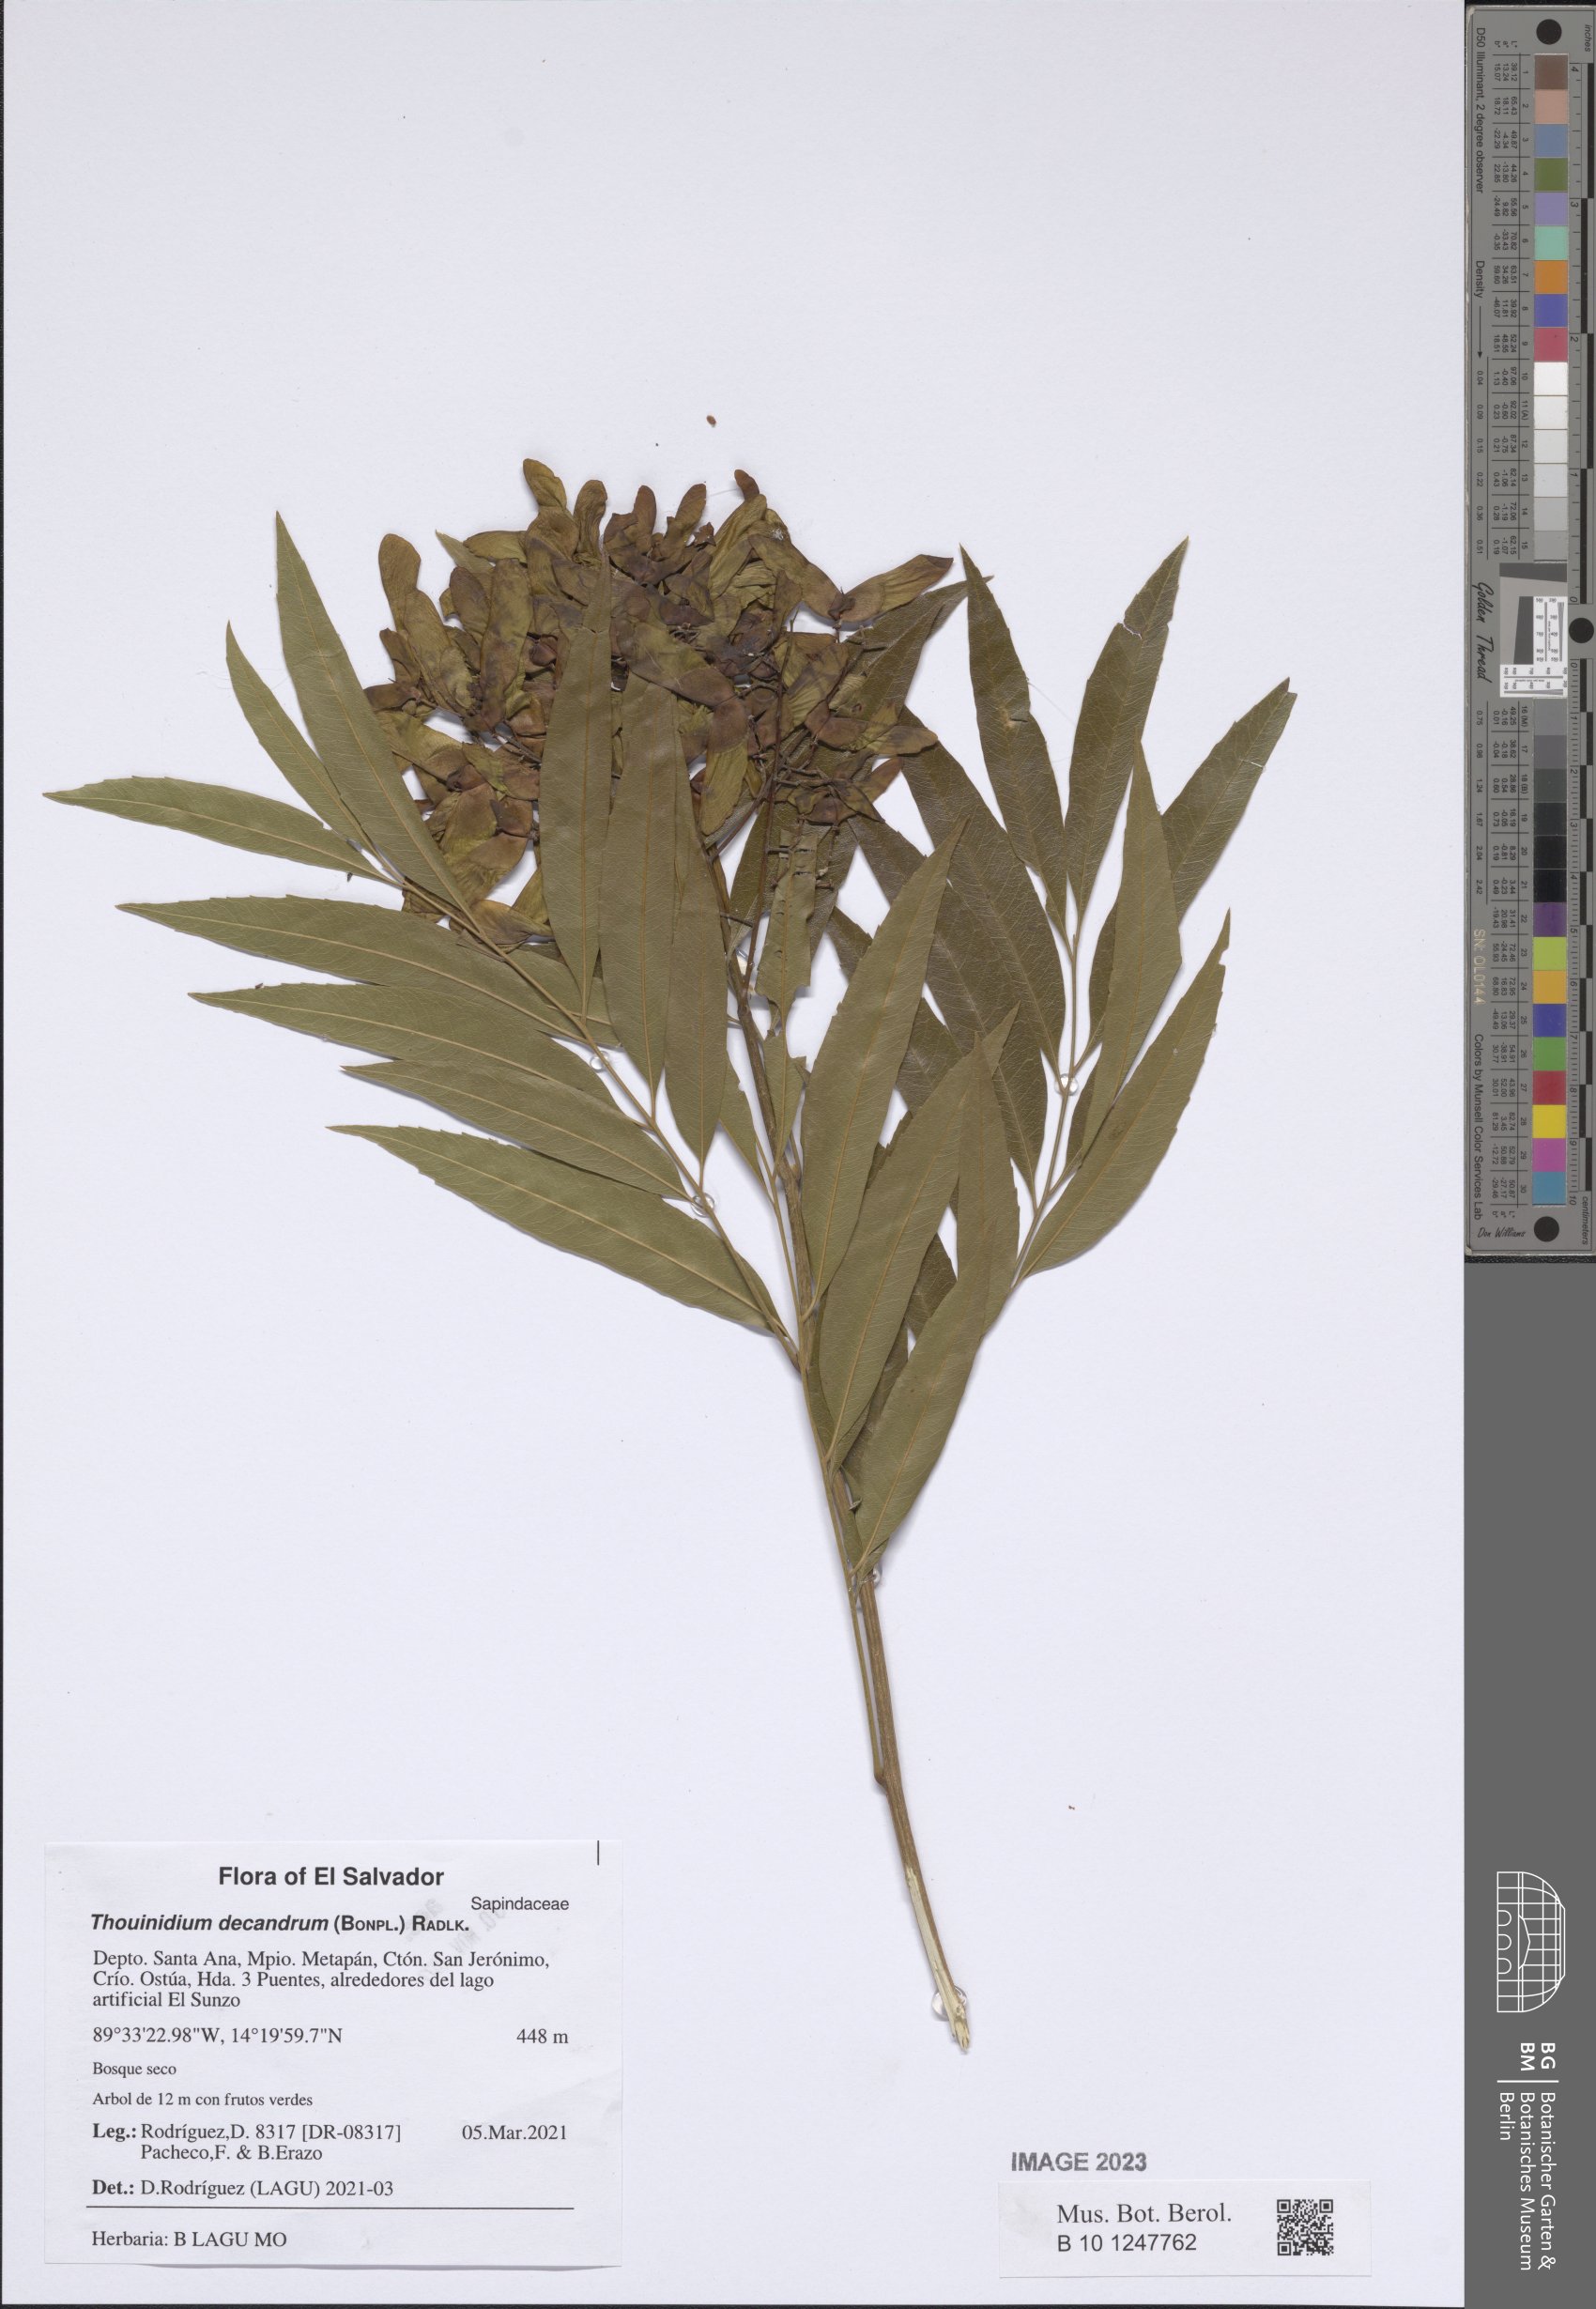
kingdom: Plantae
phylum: Tracheophyta
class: Magnoliopsida
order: Sapindales
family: Sapindaceae
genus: Thouinidium
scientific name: Thouinidium decandrum
